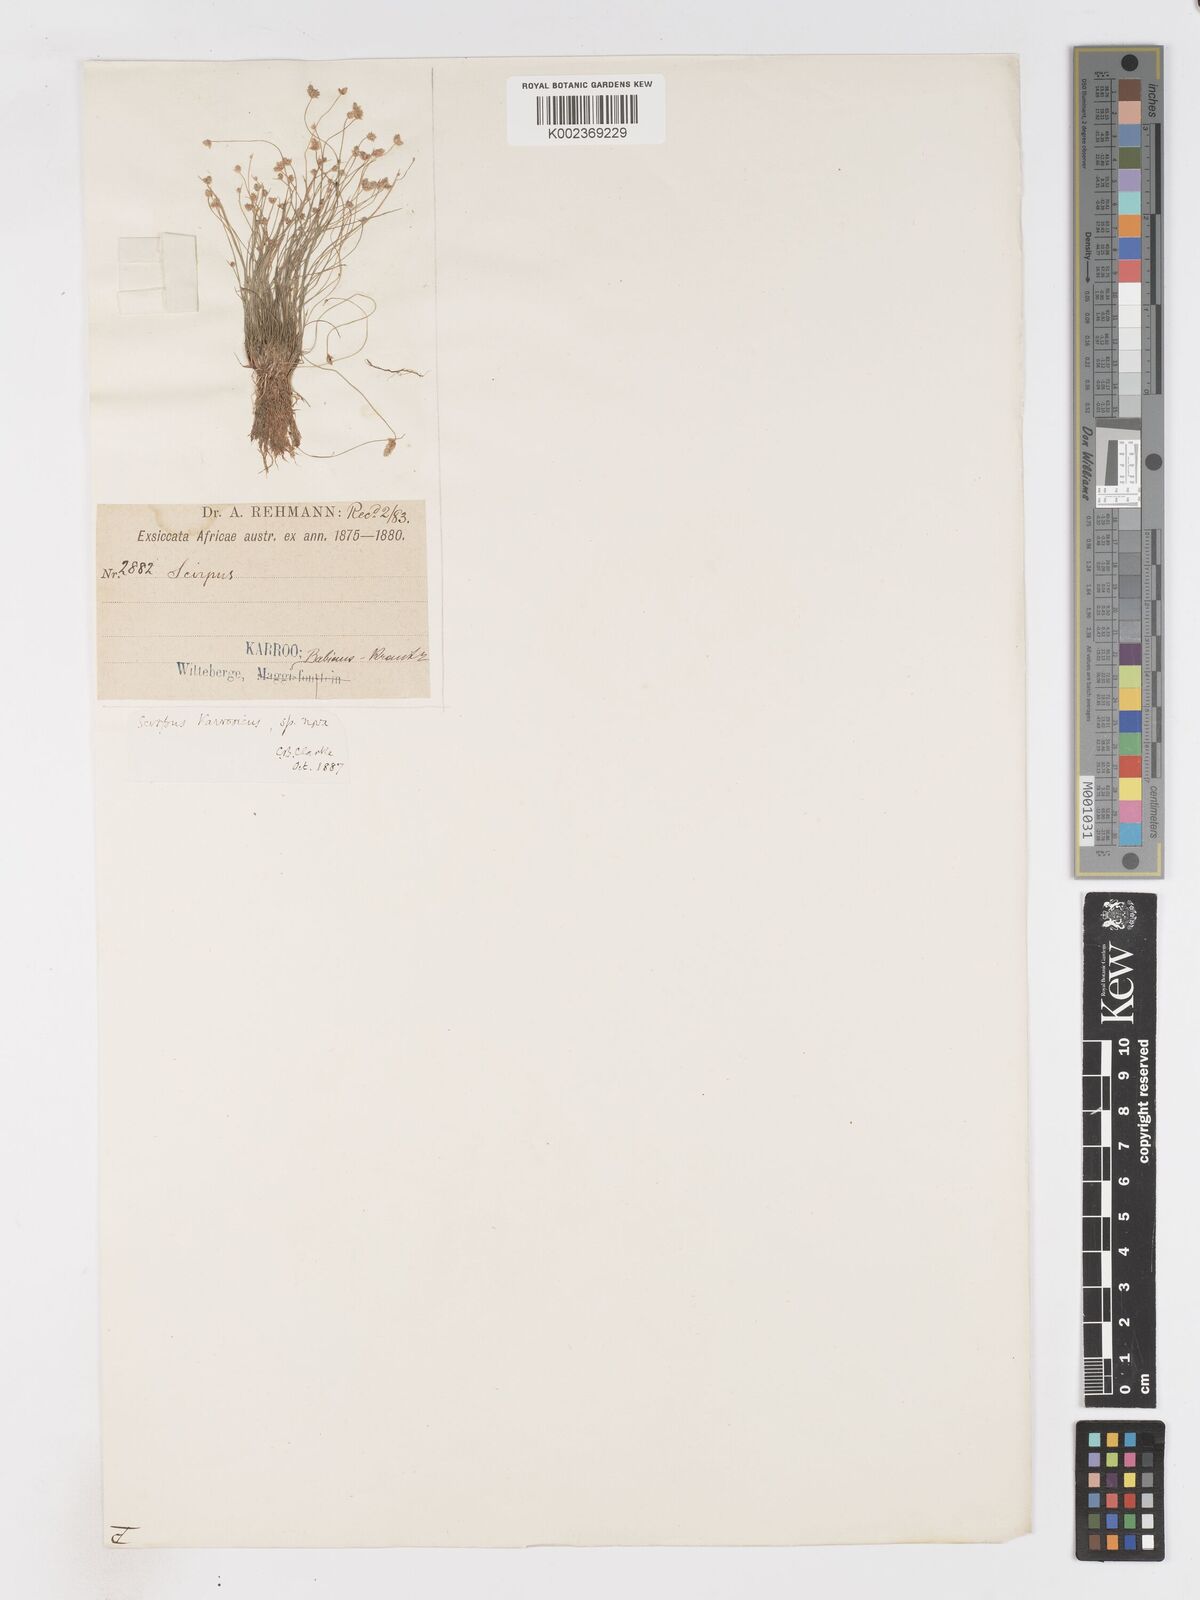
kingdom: Plantae
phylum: Tracheophyta
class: Liliopsida
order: Poales
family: Cyperaceae
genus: Isolepis
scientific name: Isolepis karroica
